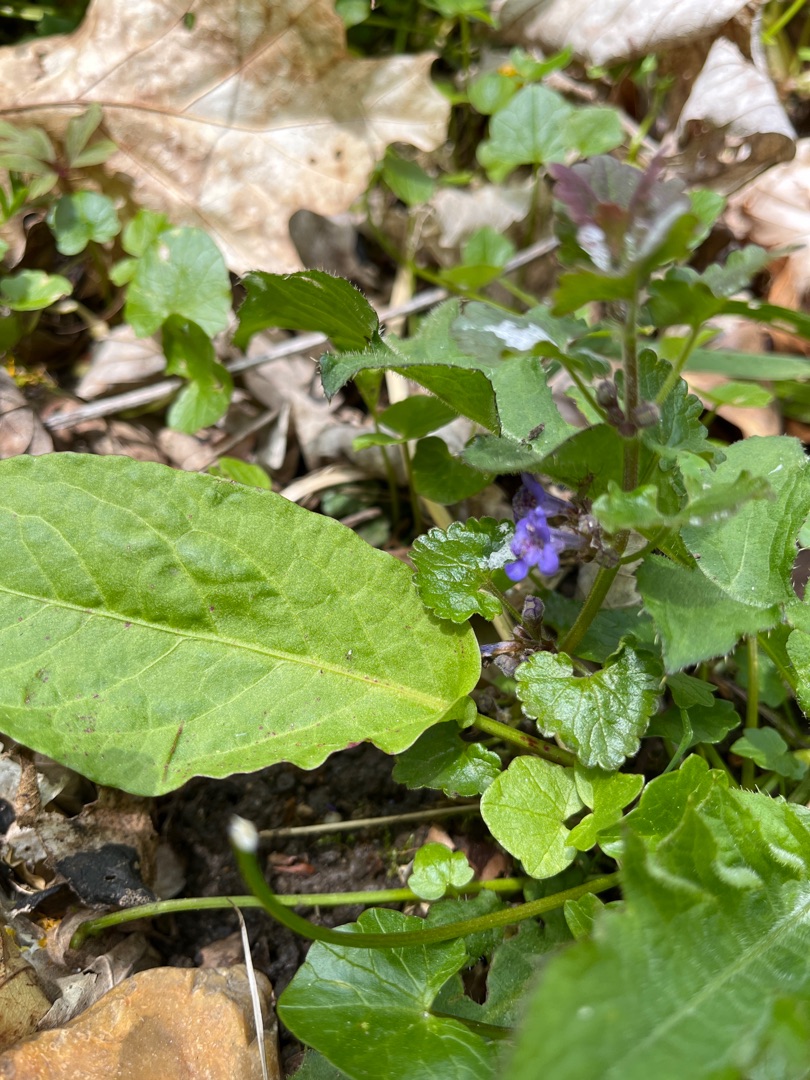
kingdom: Plantae
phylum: Tracheophyta
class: Magnoliopsida
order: Lamiales
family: Lamiaceae
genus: Glechoma
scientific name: Glechoma hederacea
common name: Korsknap
